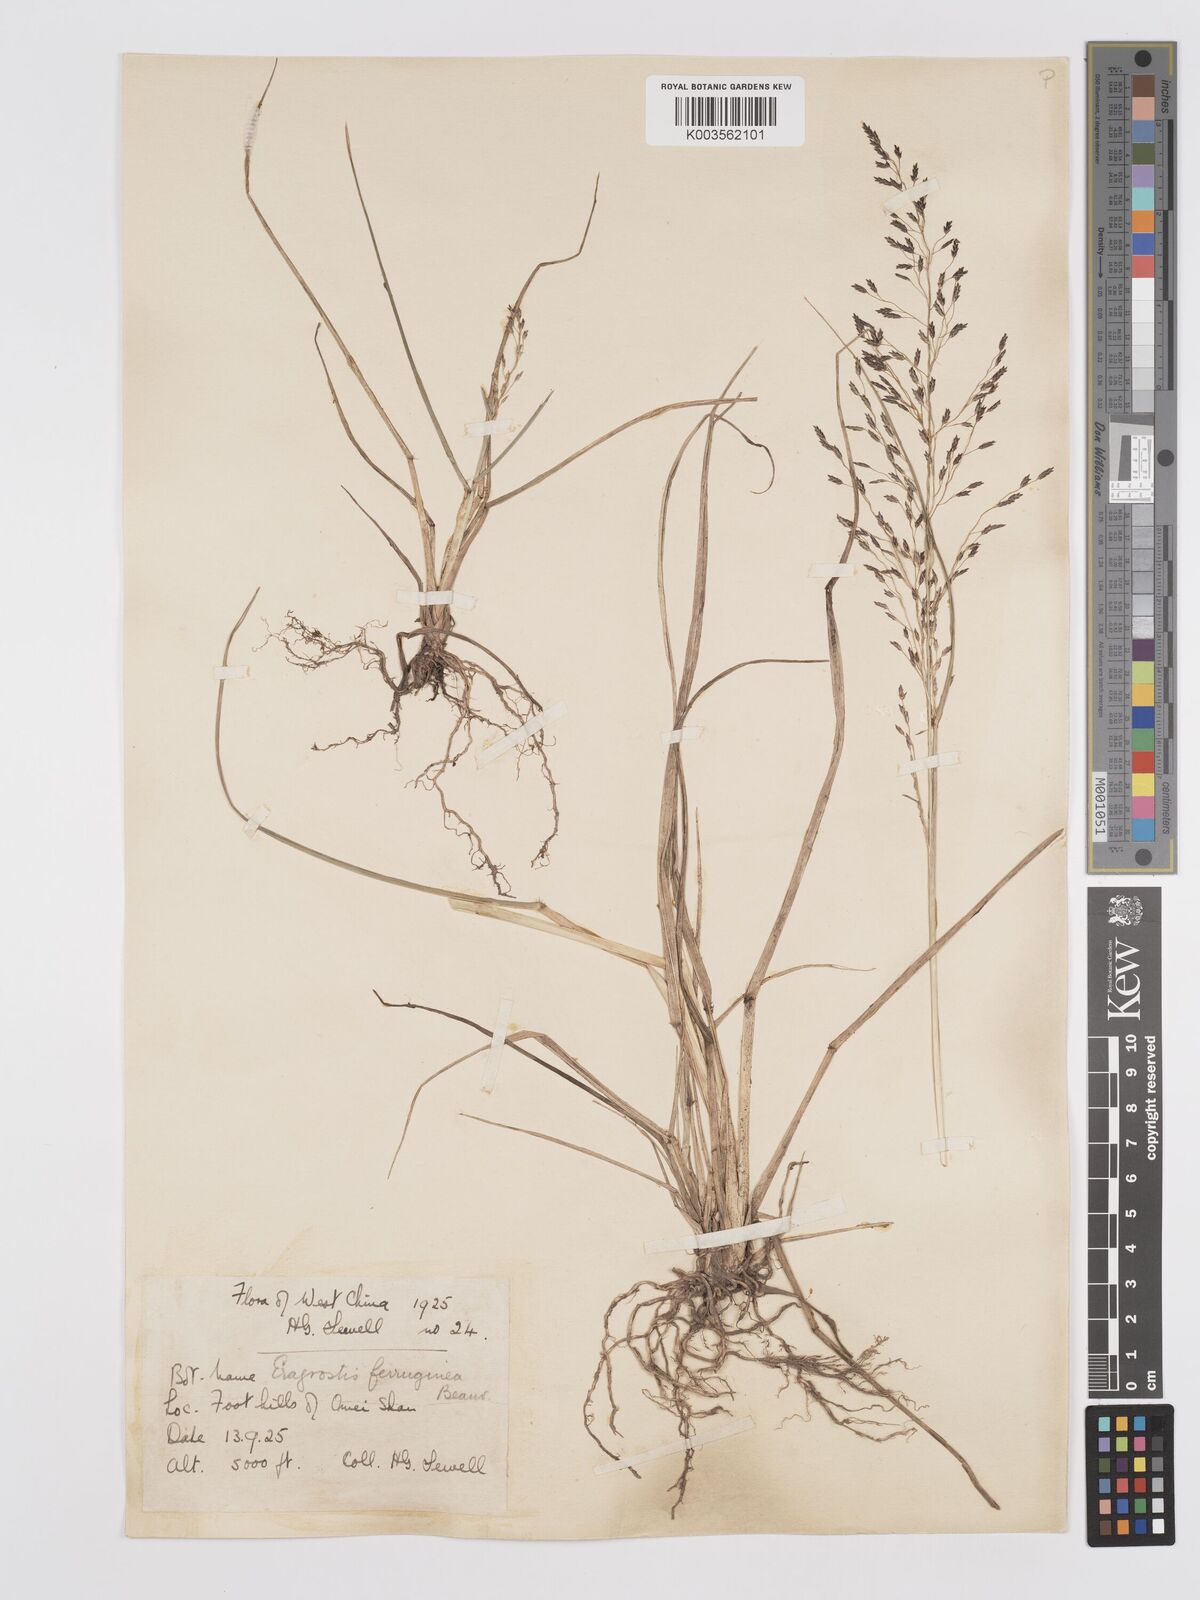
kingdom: Plantae
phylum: Tracheophyta
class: Liliopsida
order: Poales
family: Poaceae
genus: Eragrostis
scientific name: Eragrostis ferruginea
